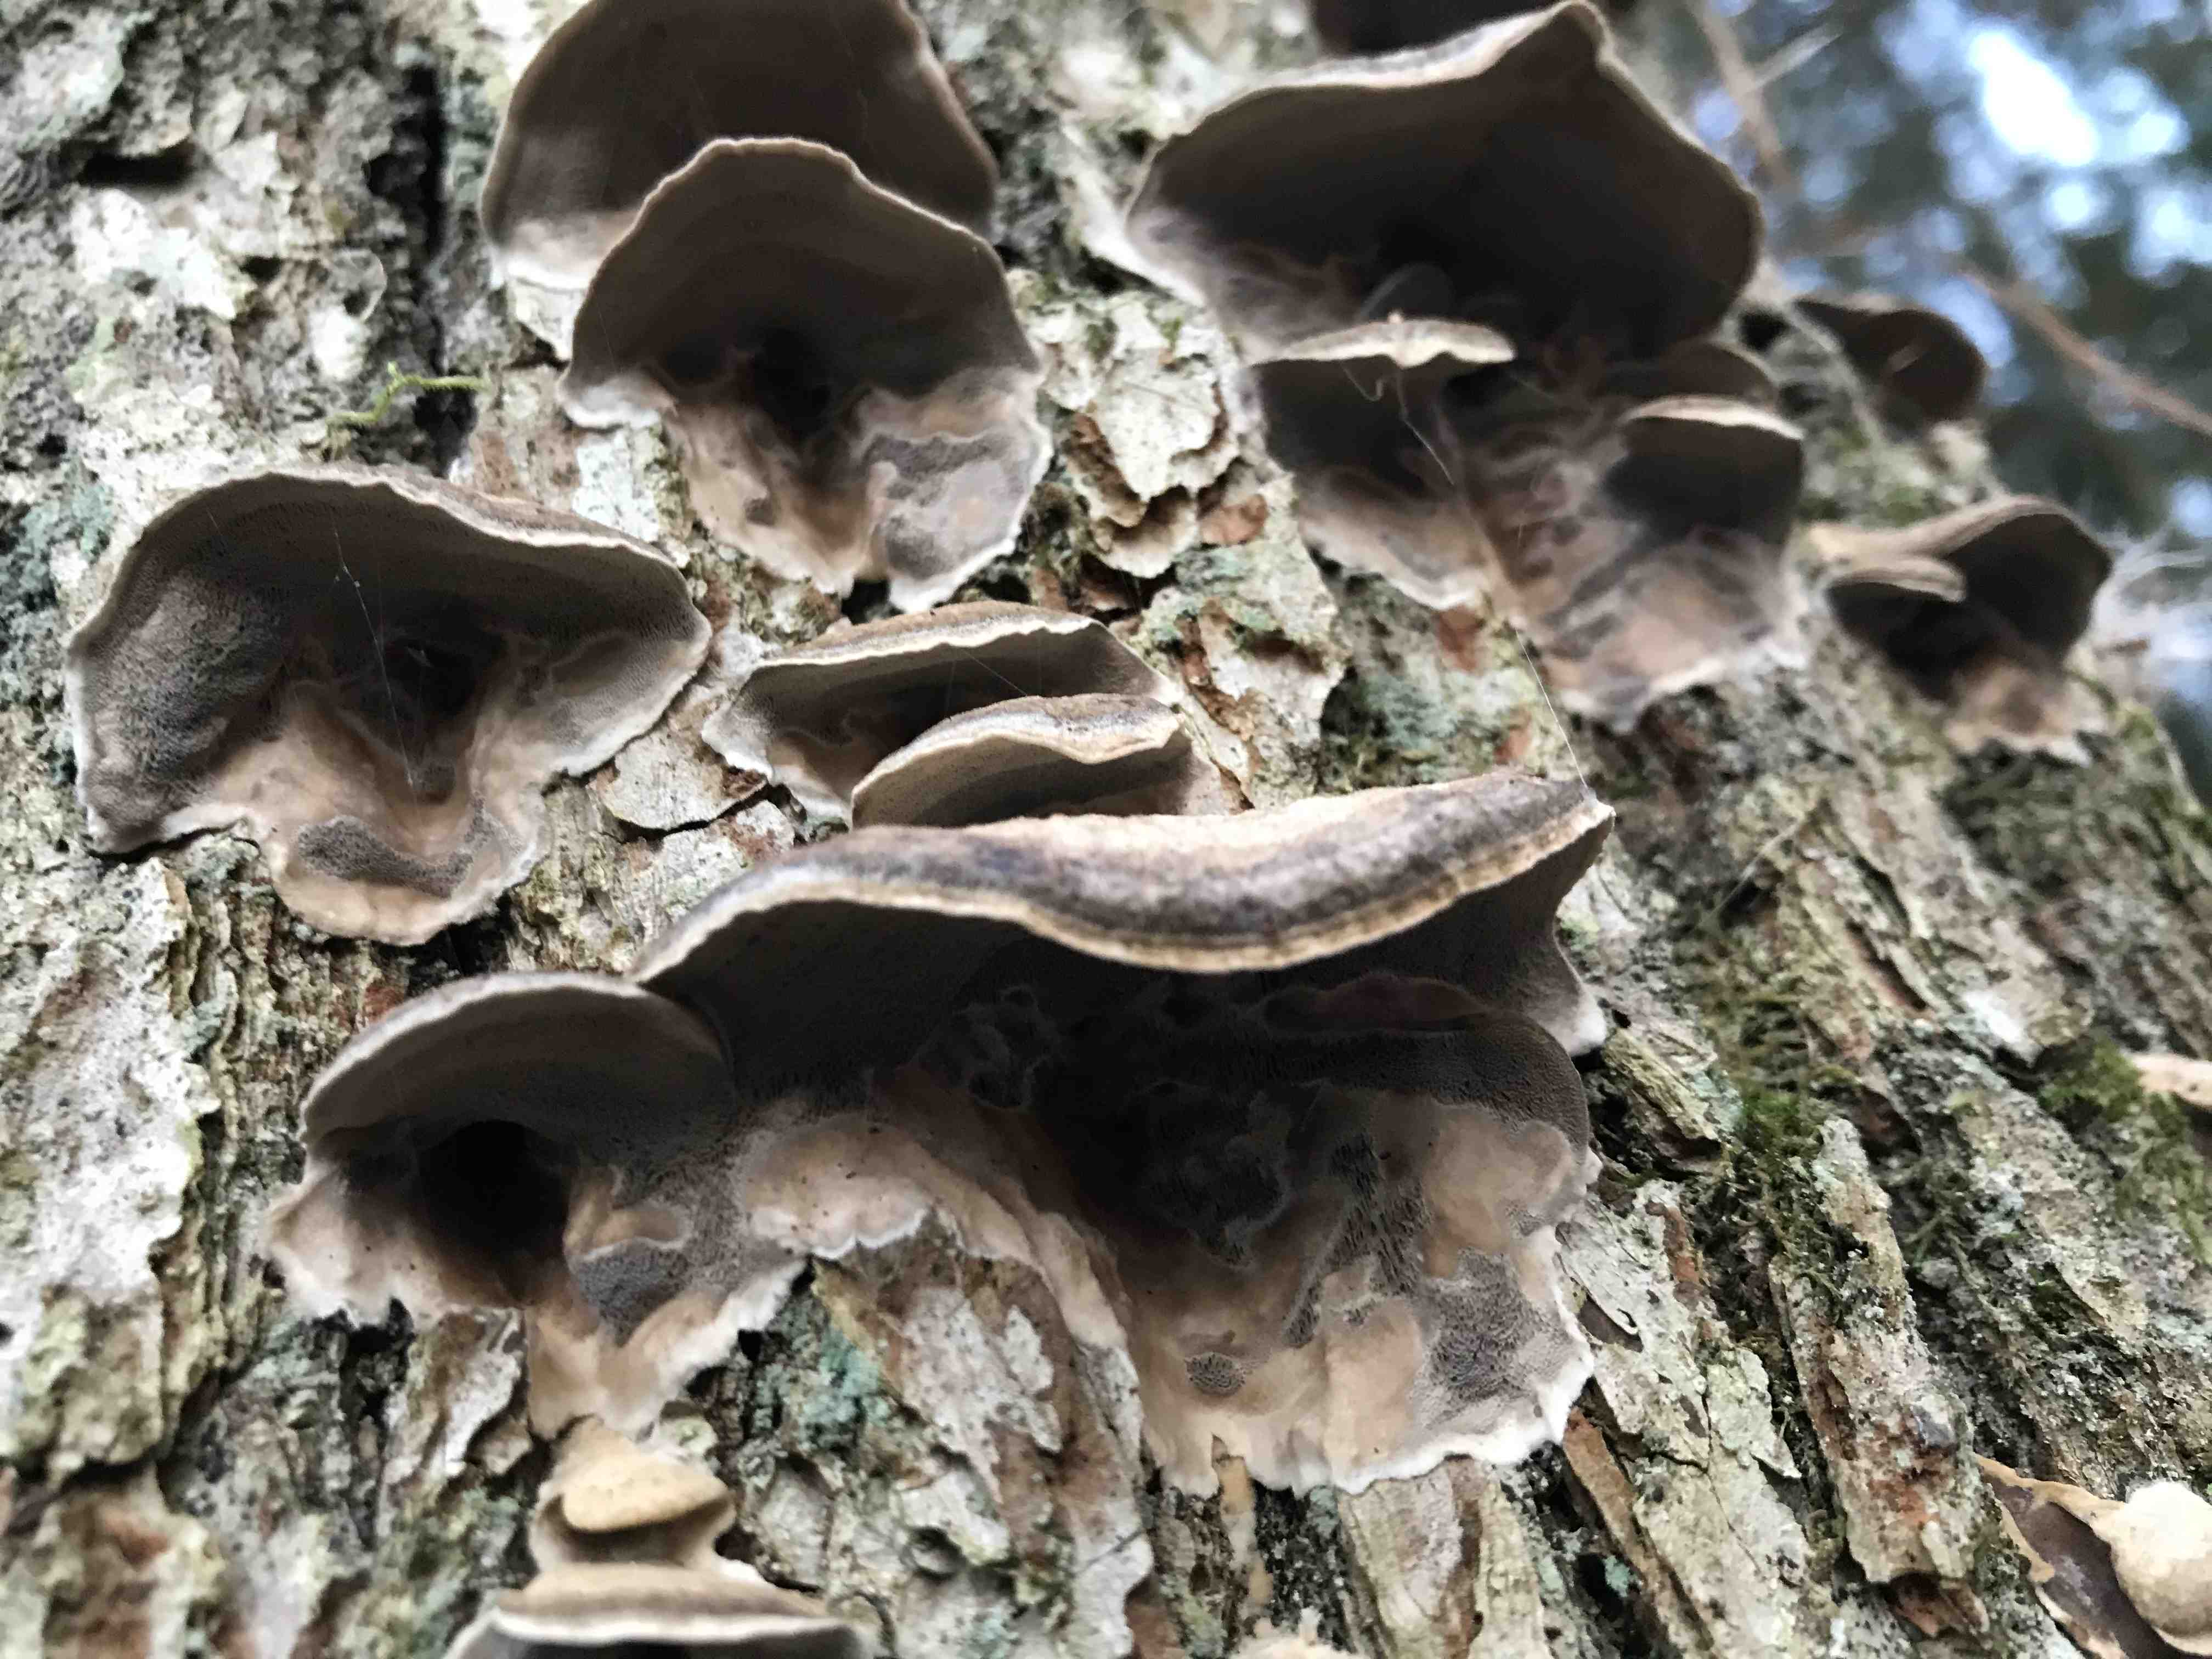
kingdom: Fungi
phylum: Basidiomycota
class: Agaricomycetes
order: Polyporales
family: Phanerochaetaceae
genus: Bjerkandera
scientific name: Bjerkandera adusta
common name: sveden sodporesvamp
